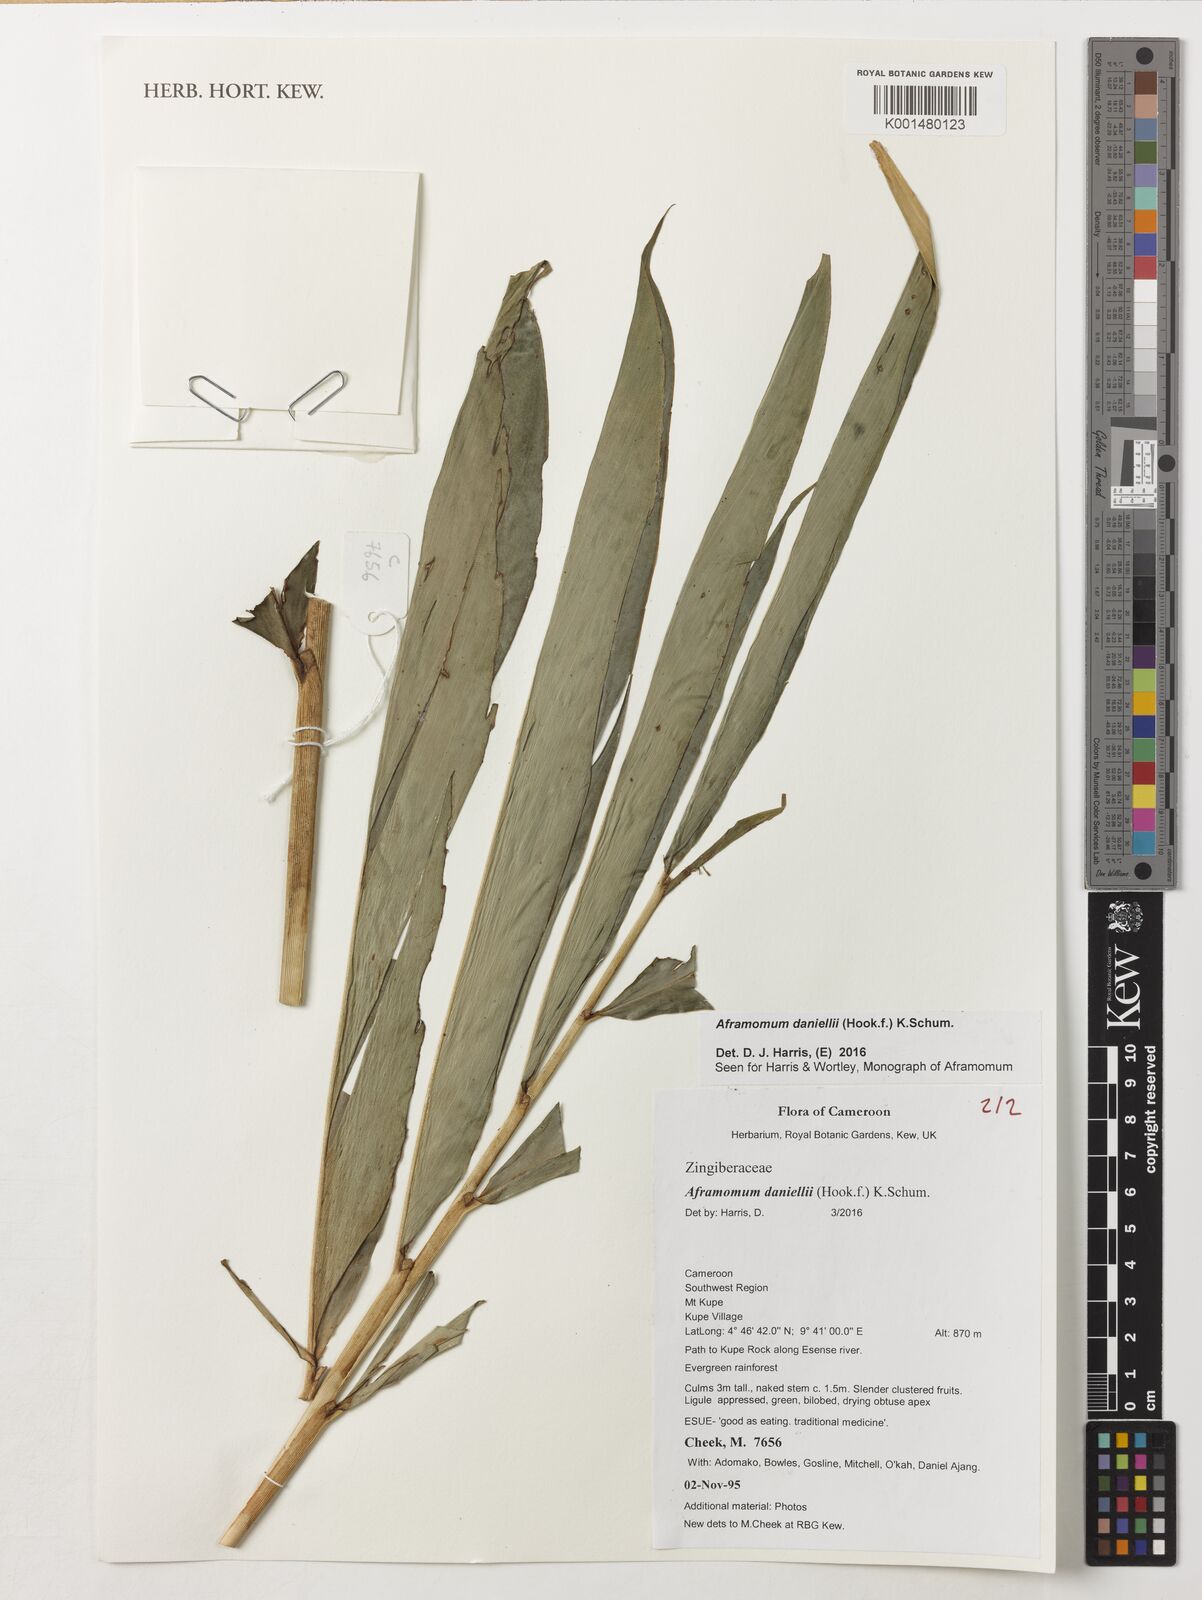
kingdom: Plantae
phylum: Tracheophyta
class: Liliopsida
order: Zingiberales
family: Zingiberaceae
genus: Aframomum
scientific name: Aframomum daniellii
